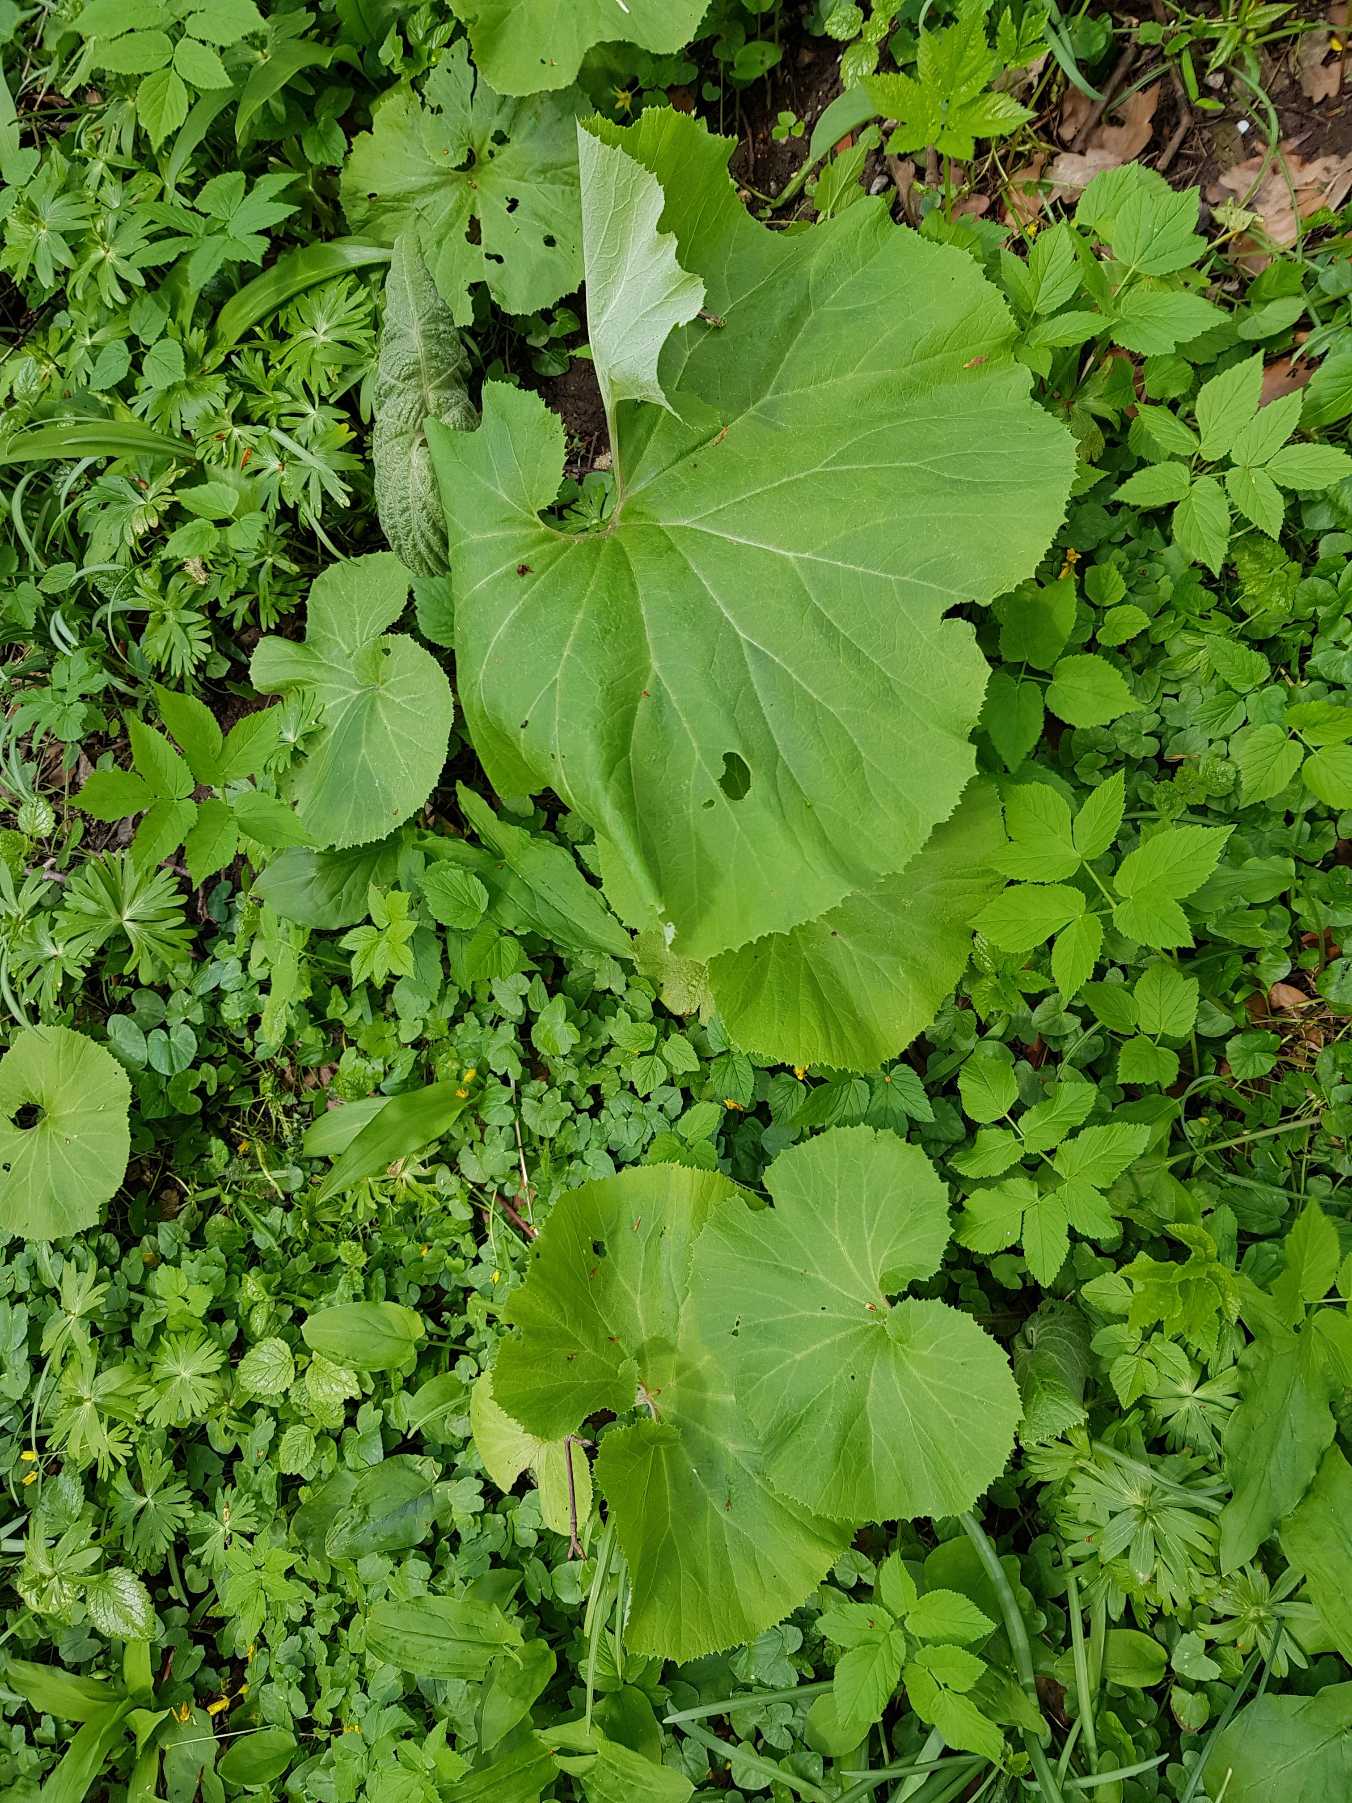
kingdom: Plantae
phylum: Tracheophyta
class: Magnoliopsida
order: Asterales
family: Asteraceae
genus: Petasites
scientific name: Petasites japonicus
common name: Japansk hestehov
